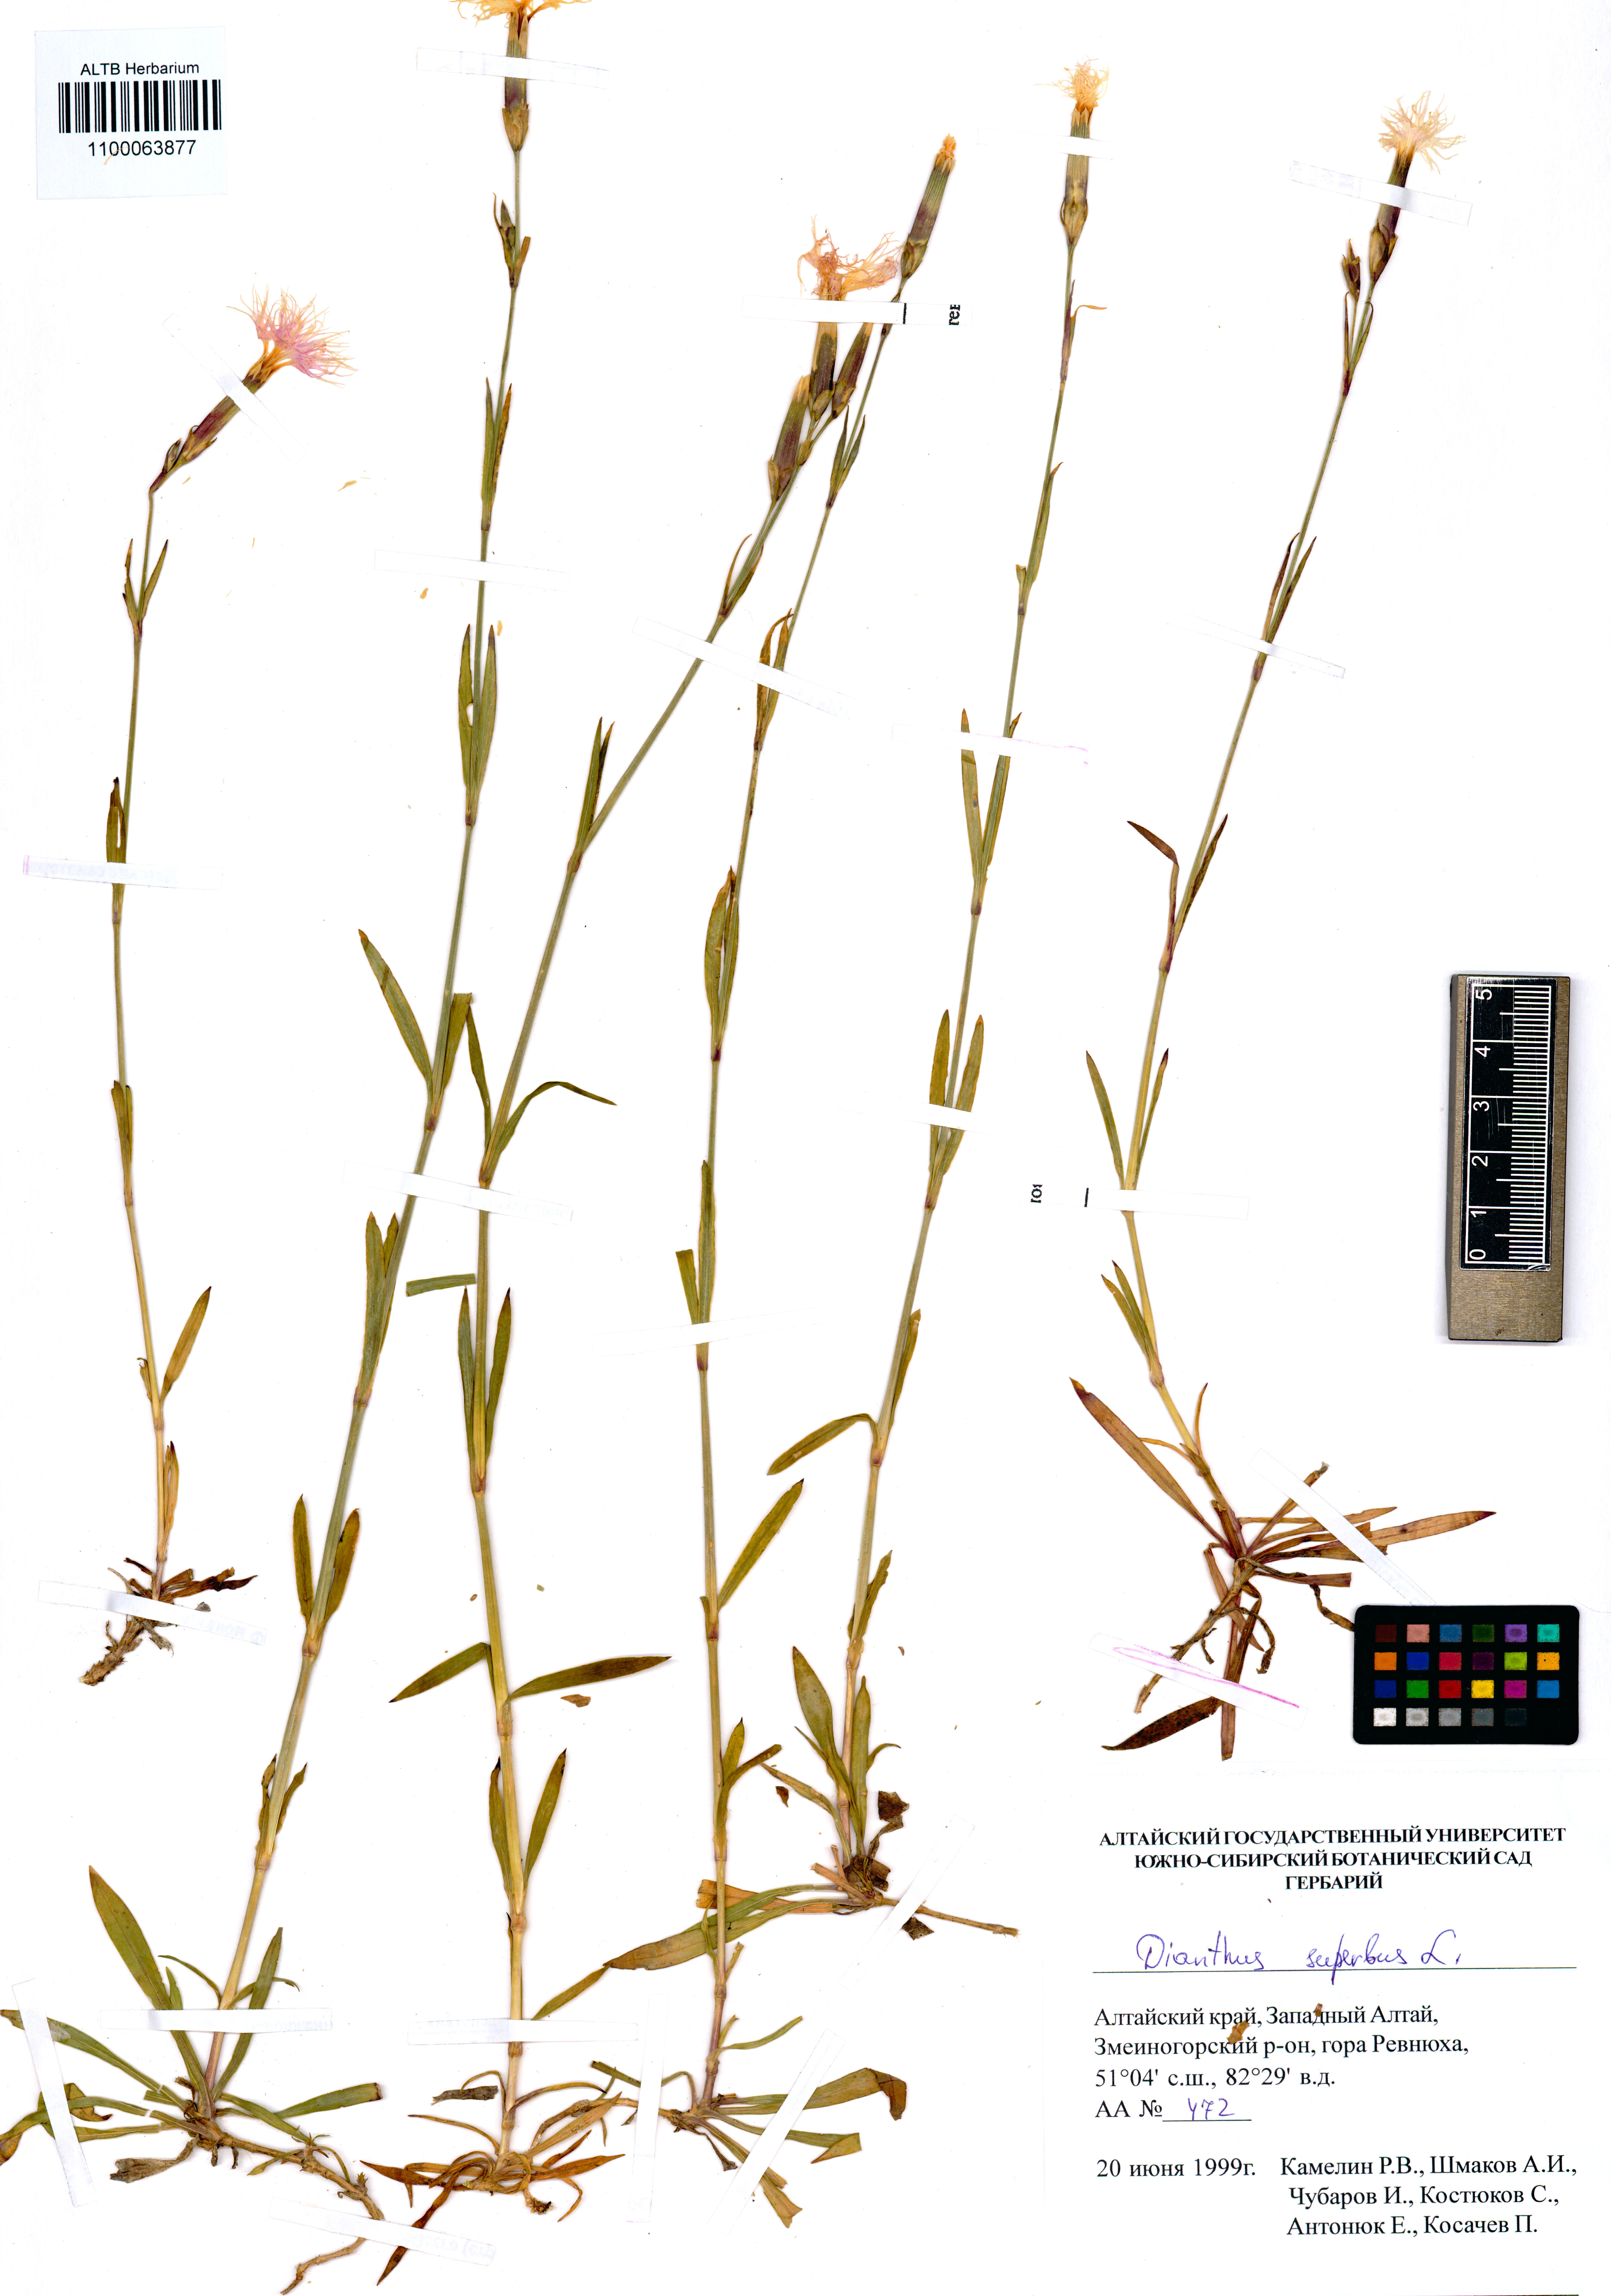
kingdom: Plantae
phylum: Tracheophyta
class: Magnoliopsida
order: Caryophyllales
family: Caryophyllaceae
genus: Dianthus
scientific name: Dianthus superbus
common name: Fringed pink
